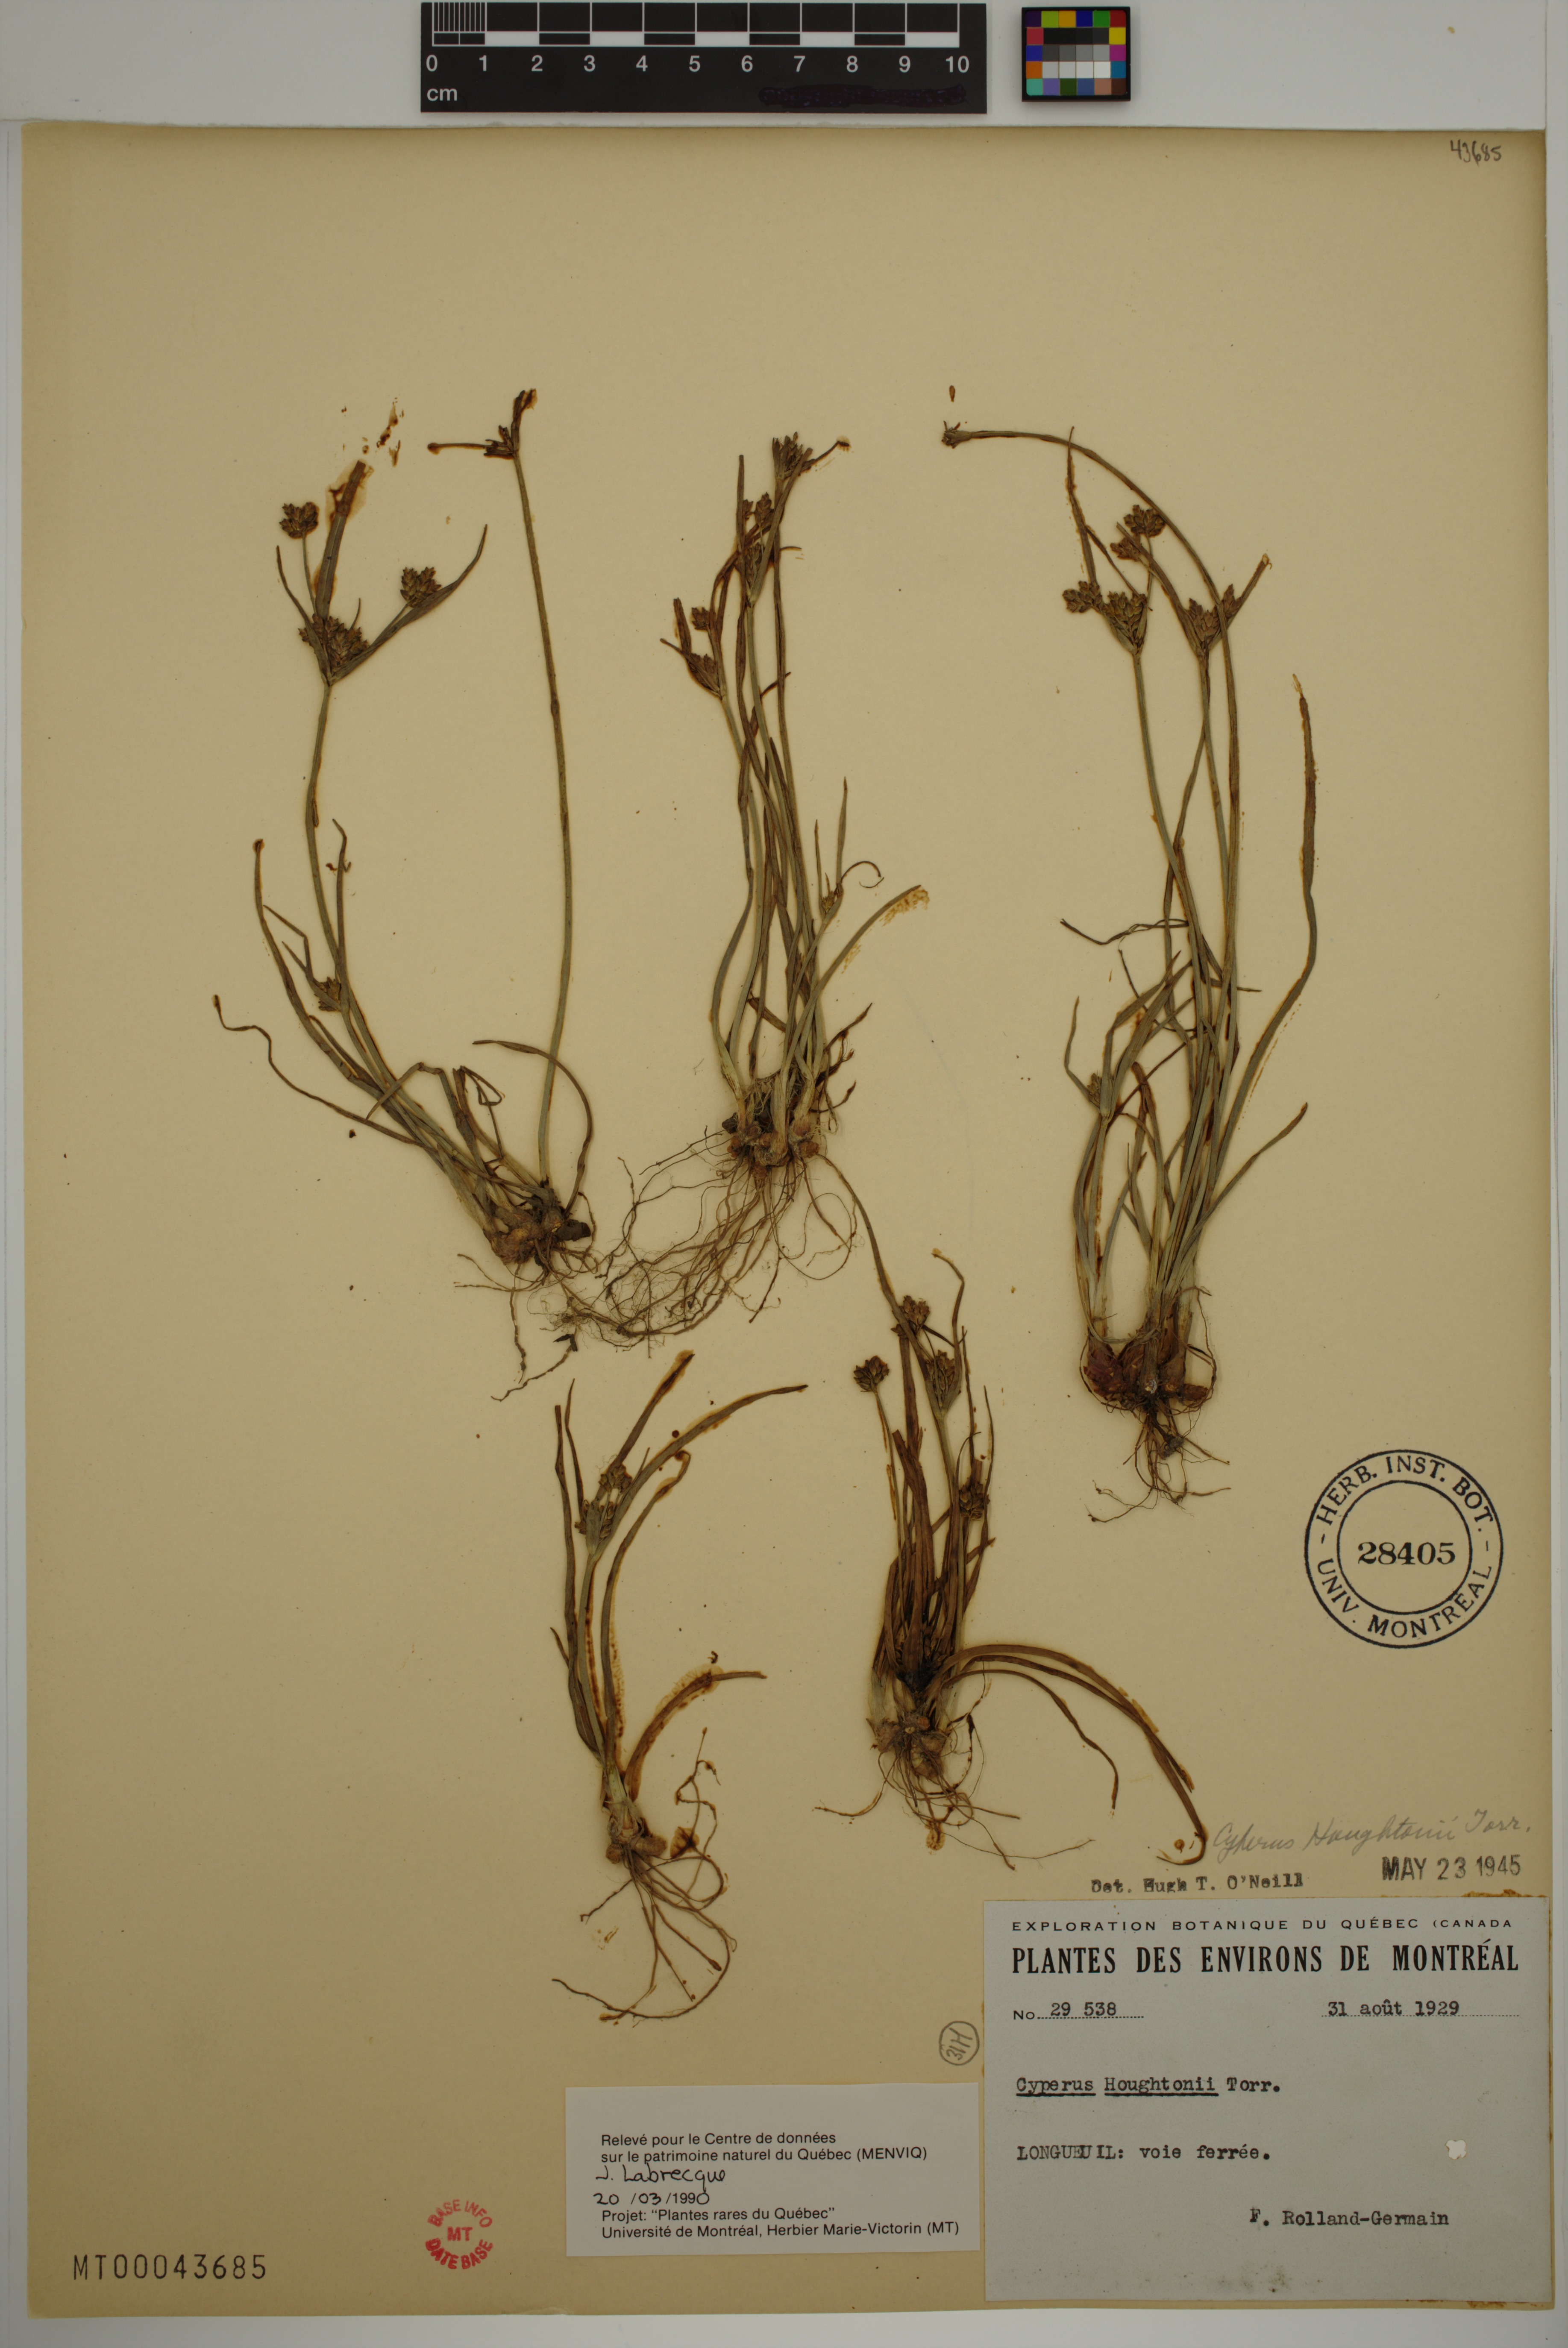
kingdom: Plantae
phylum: Tracheophyta
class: Liliopsida
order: Poales
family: Cyperaceae
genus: Cyperus
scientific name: Cyperus houghtonii
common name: Houghton's cyperus
